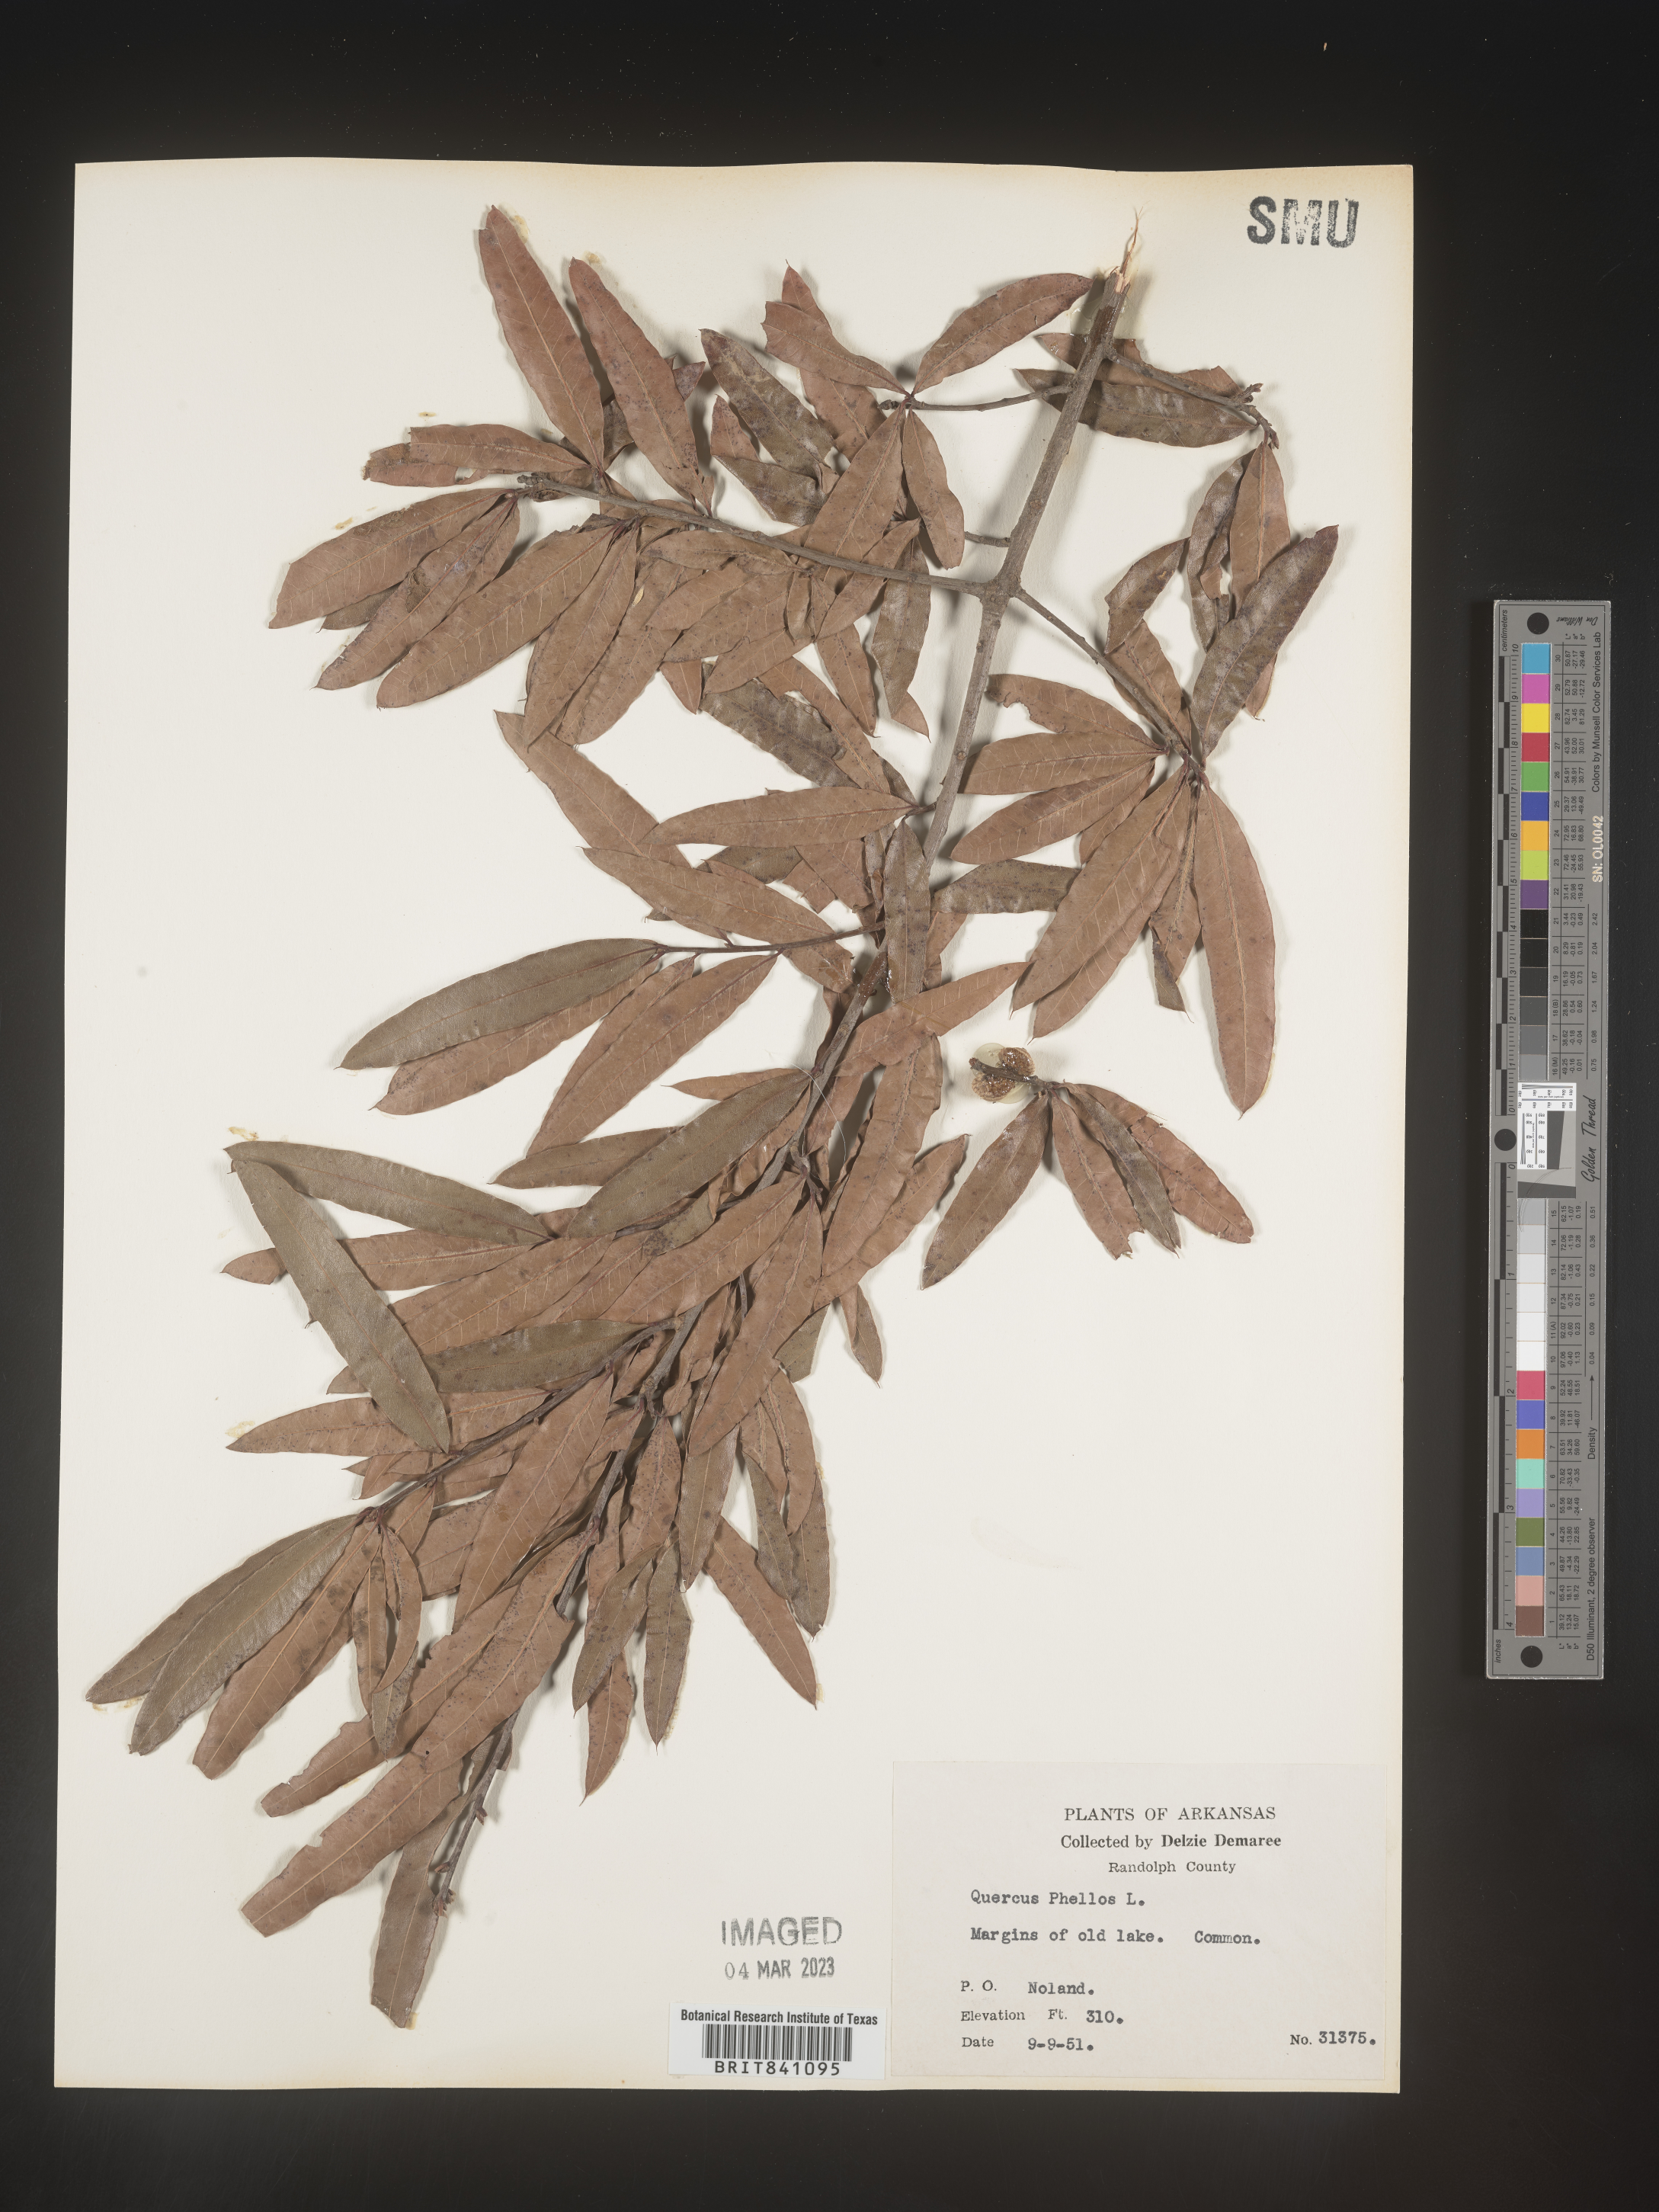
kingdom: Plantae
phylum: Tracheophyta
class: Magnoliopsida
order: Fagales
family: Fagaceae
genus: Quercus
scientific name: Quercus phellos
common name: Willow oak
